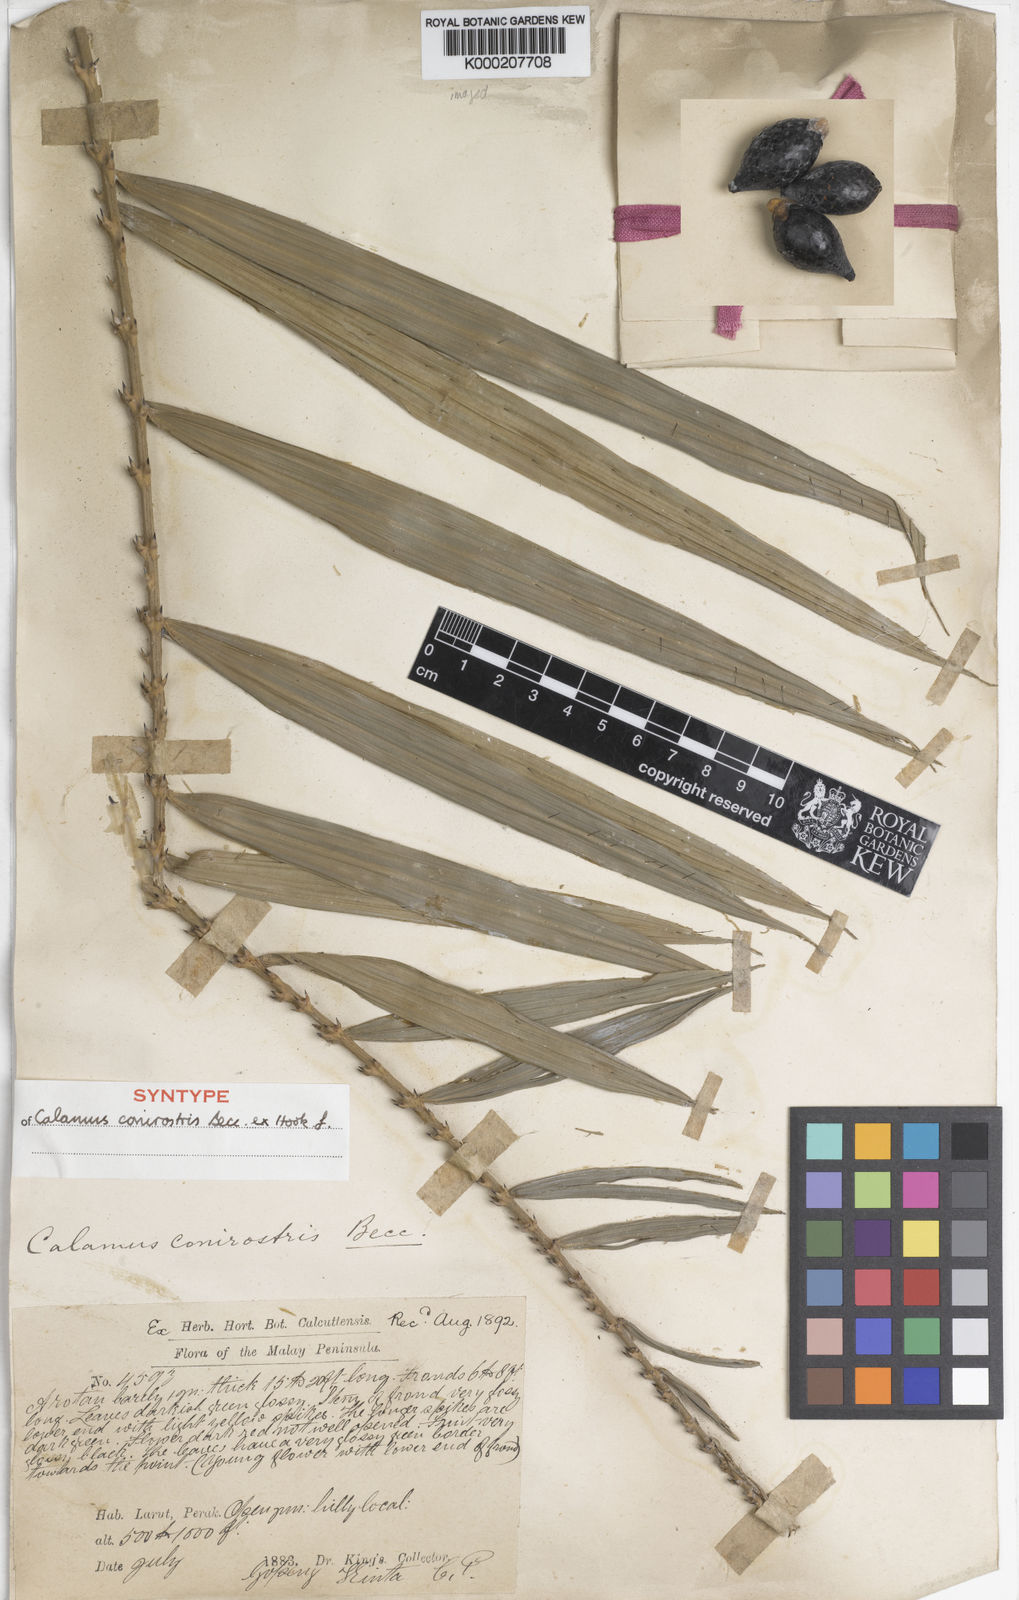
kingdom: Plantae
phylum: Tracheophyta
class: Liliopsida
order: Arecales
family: Arecaceae
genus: Calamus
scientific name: Calamus conirostris
